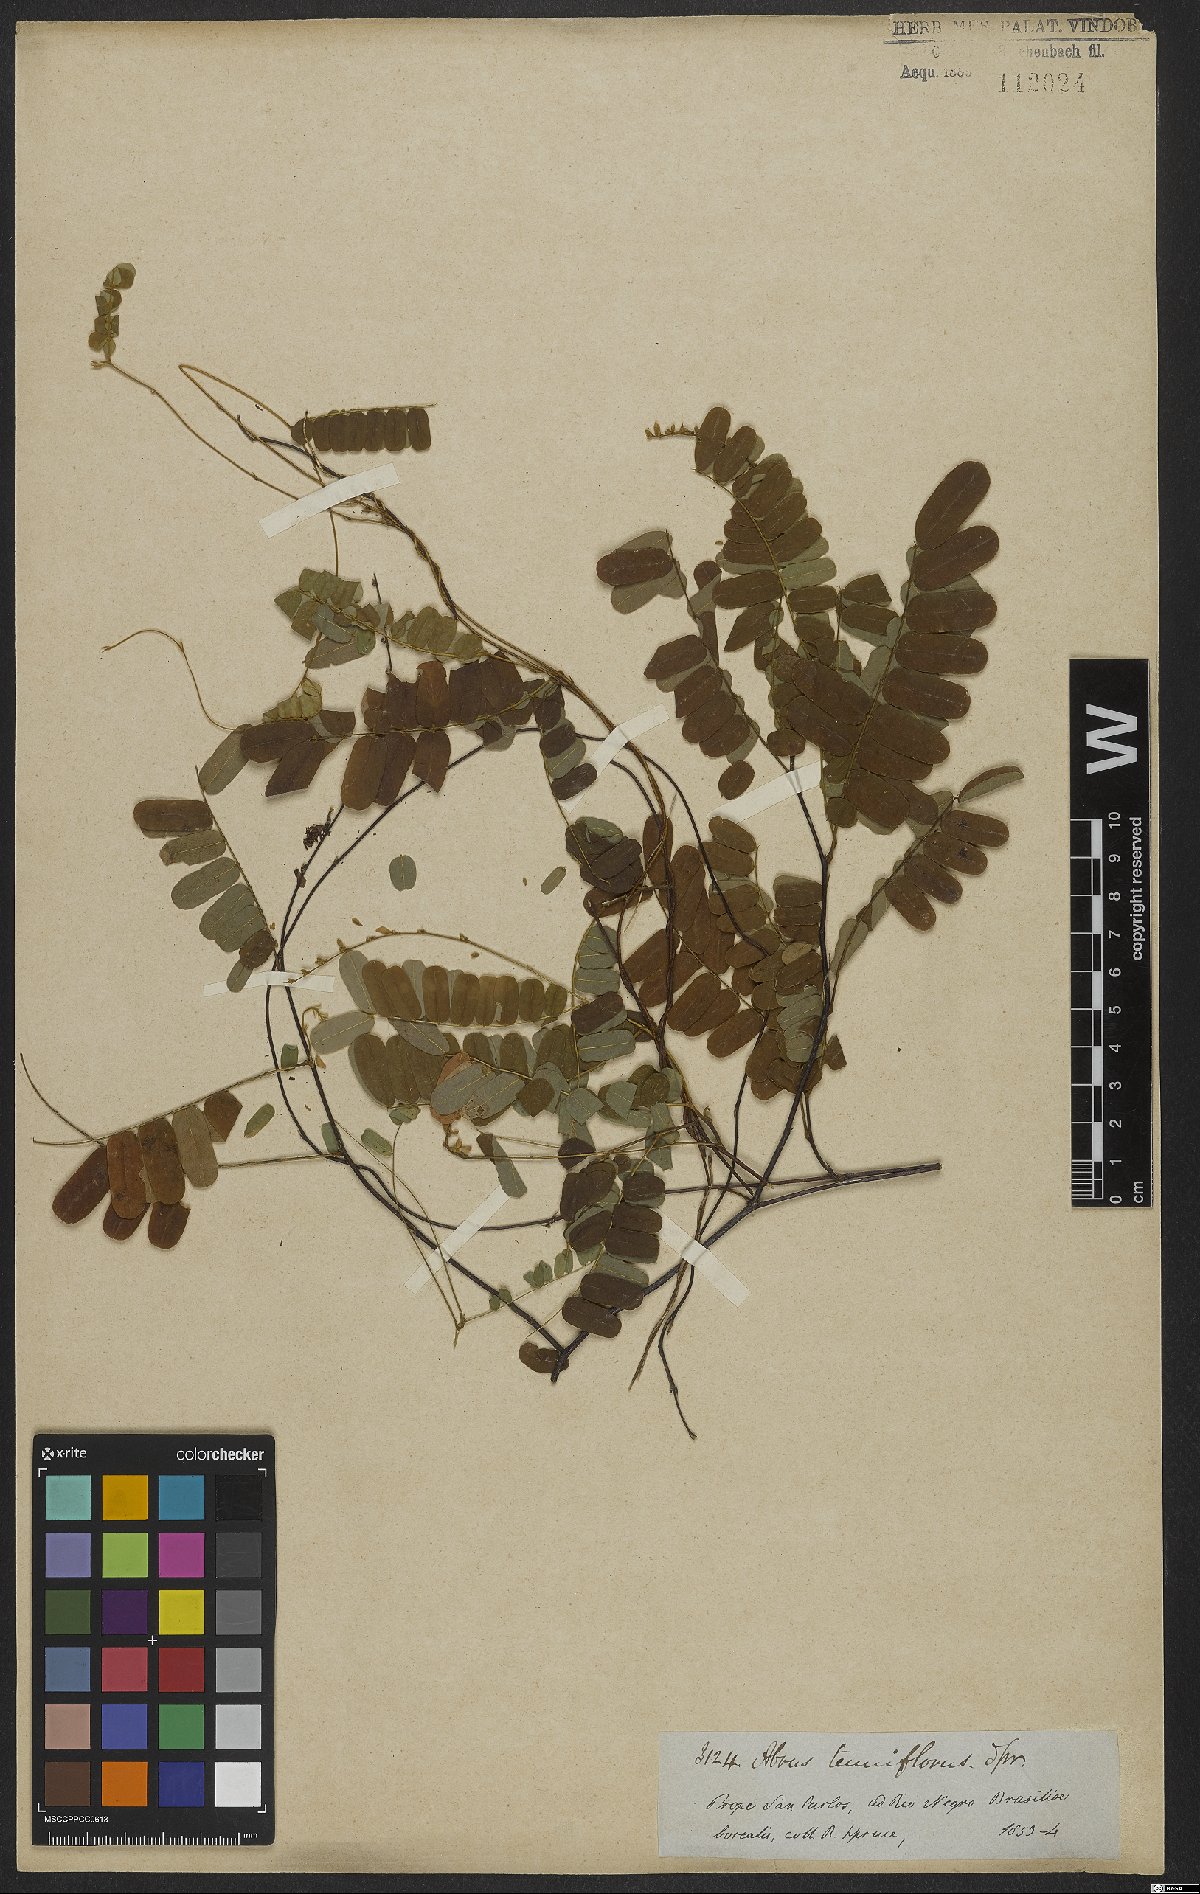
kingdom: Plantae
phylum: Tracheophyta
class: Magnoliopsida
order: Fabales
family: Fabaceae
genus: Abrus
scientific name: Abrus melanospermus
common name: Licorice-root
